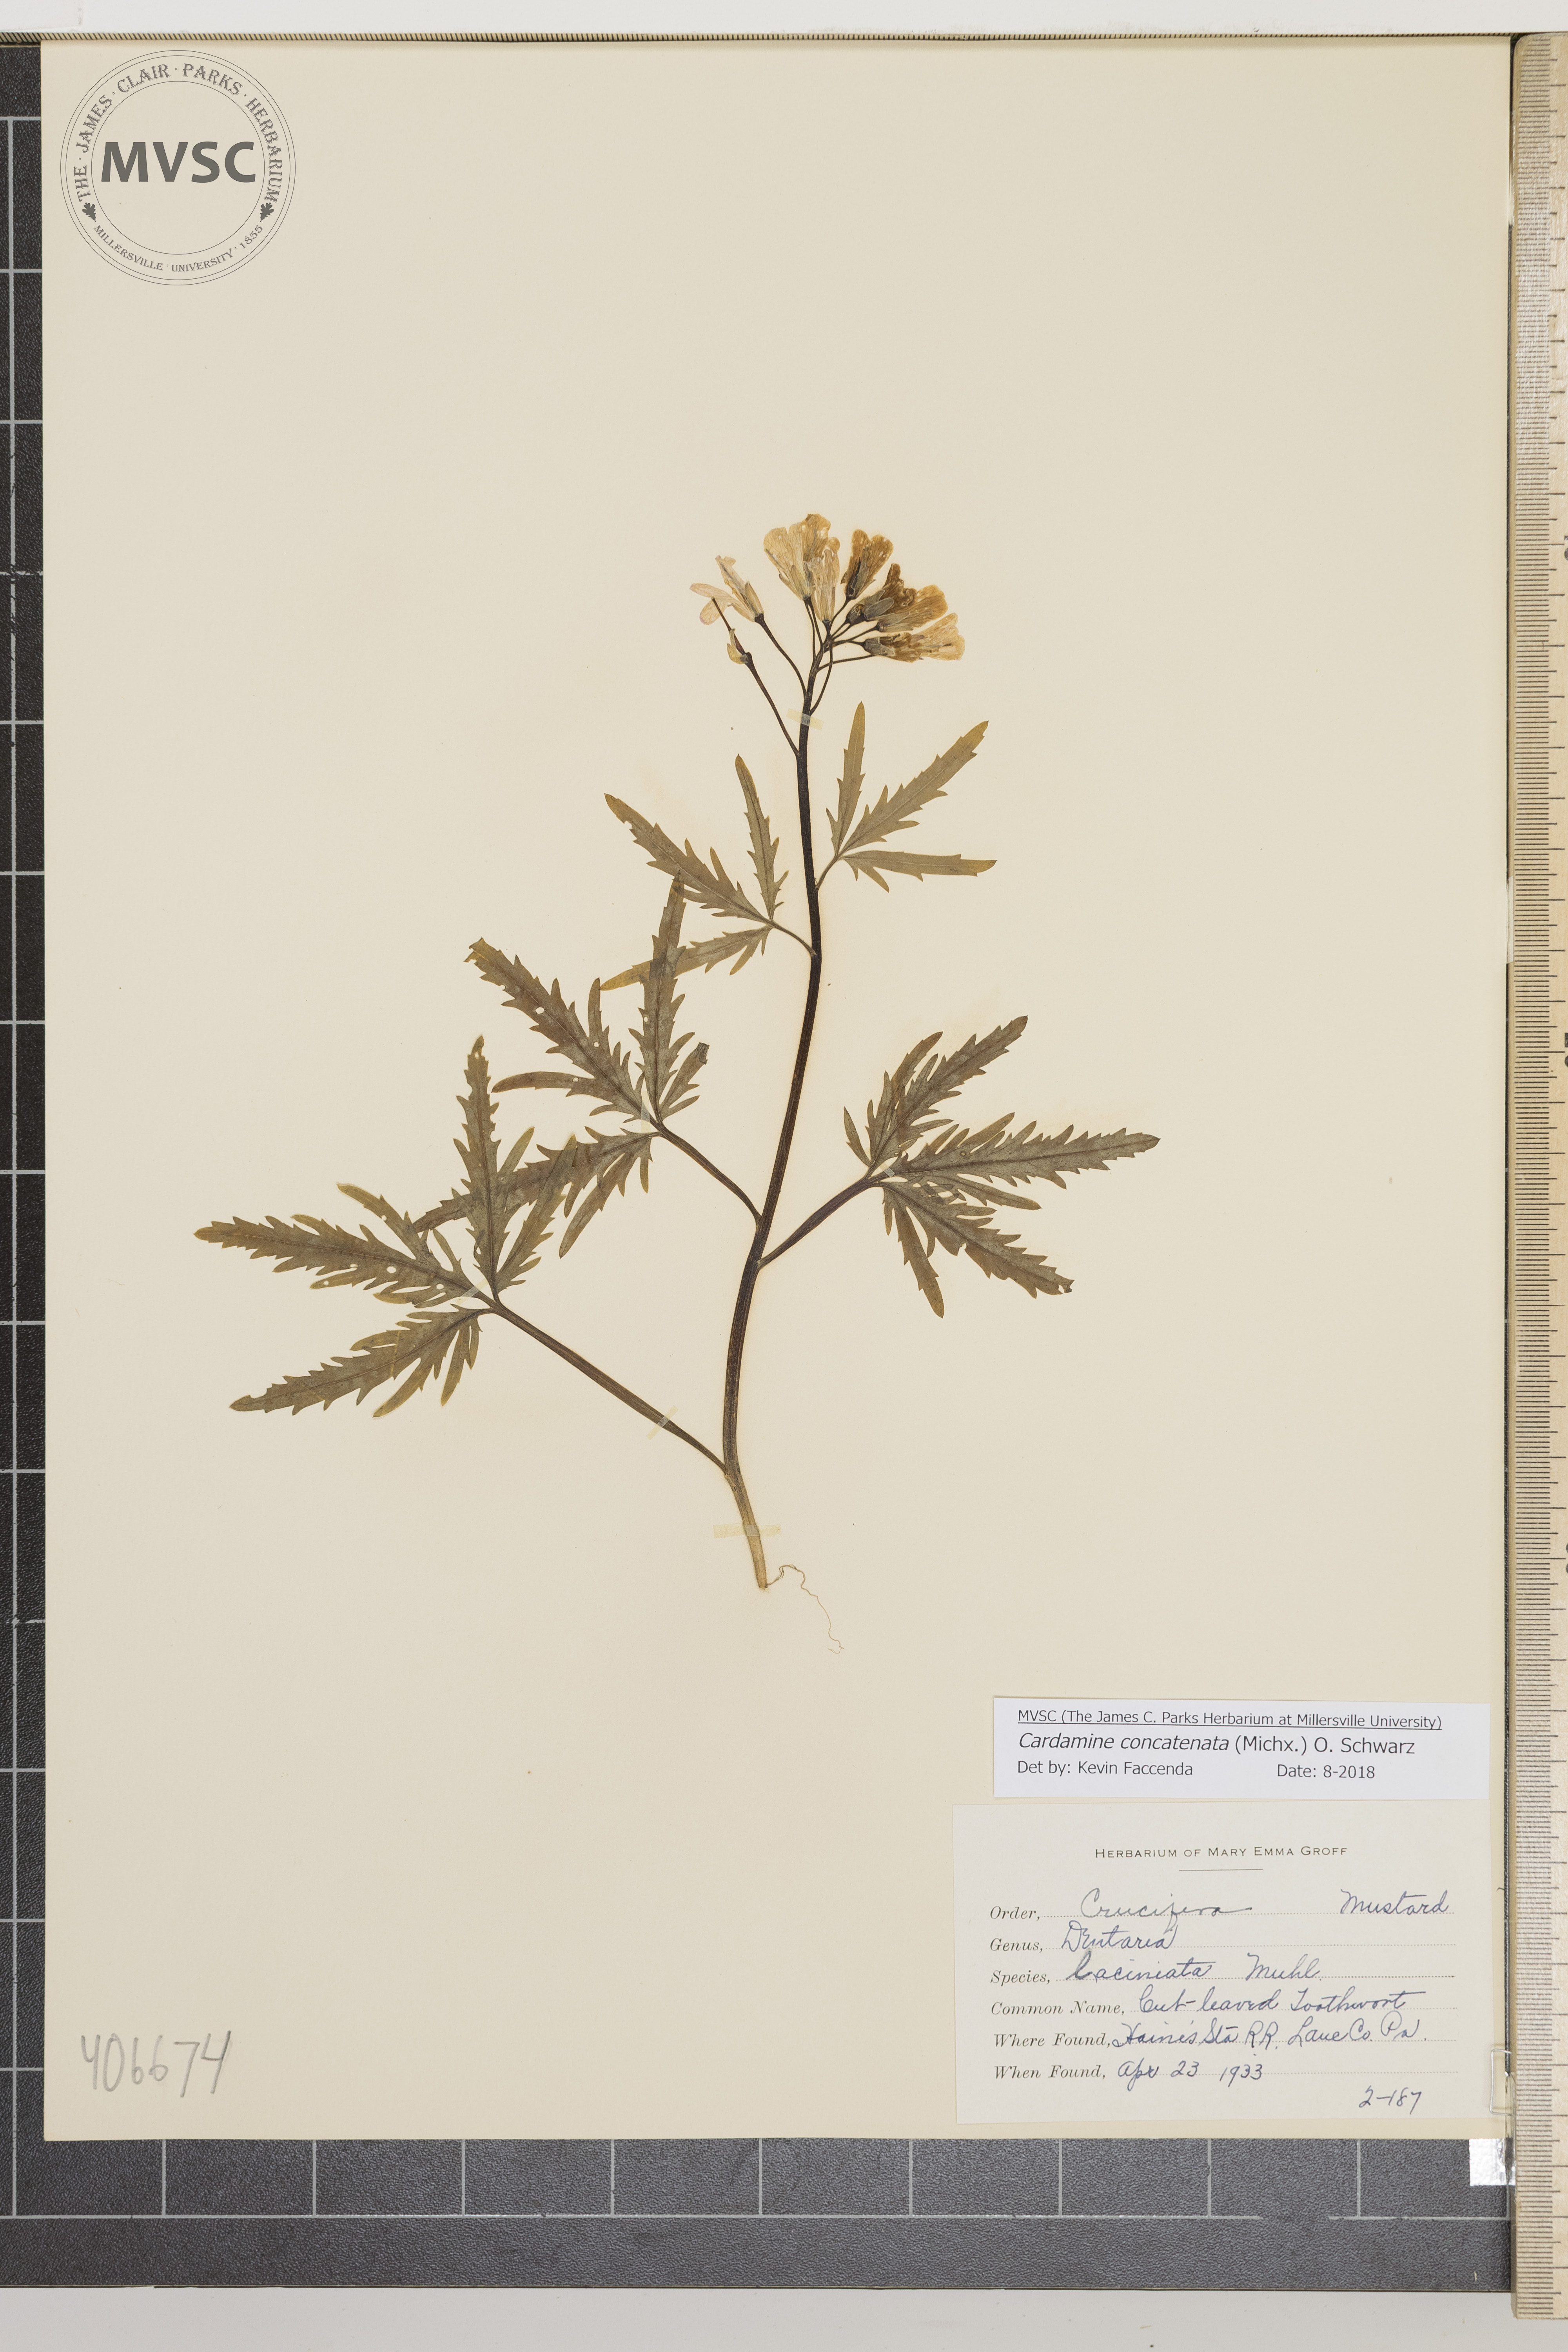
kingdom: Plantae
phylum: Tracheophyta
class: Magnoliopsida
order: Brassicales
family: Brassicaceae
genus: Cardamine
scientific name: Cardamine concatenata
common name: Cut-leaved Toothwort
